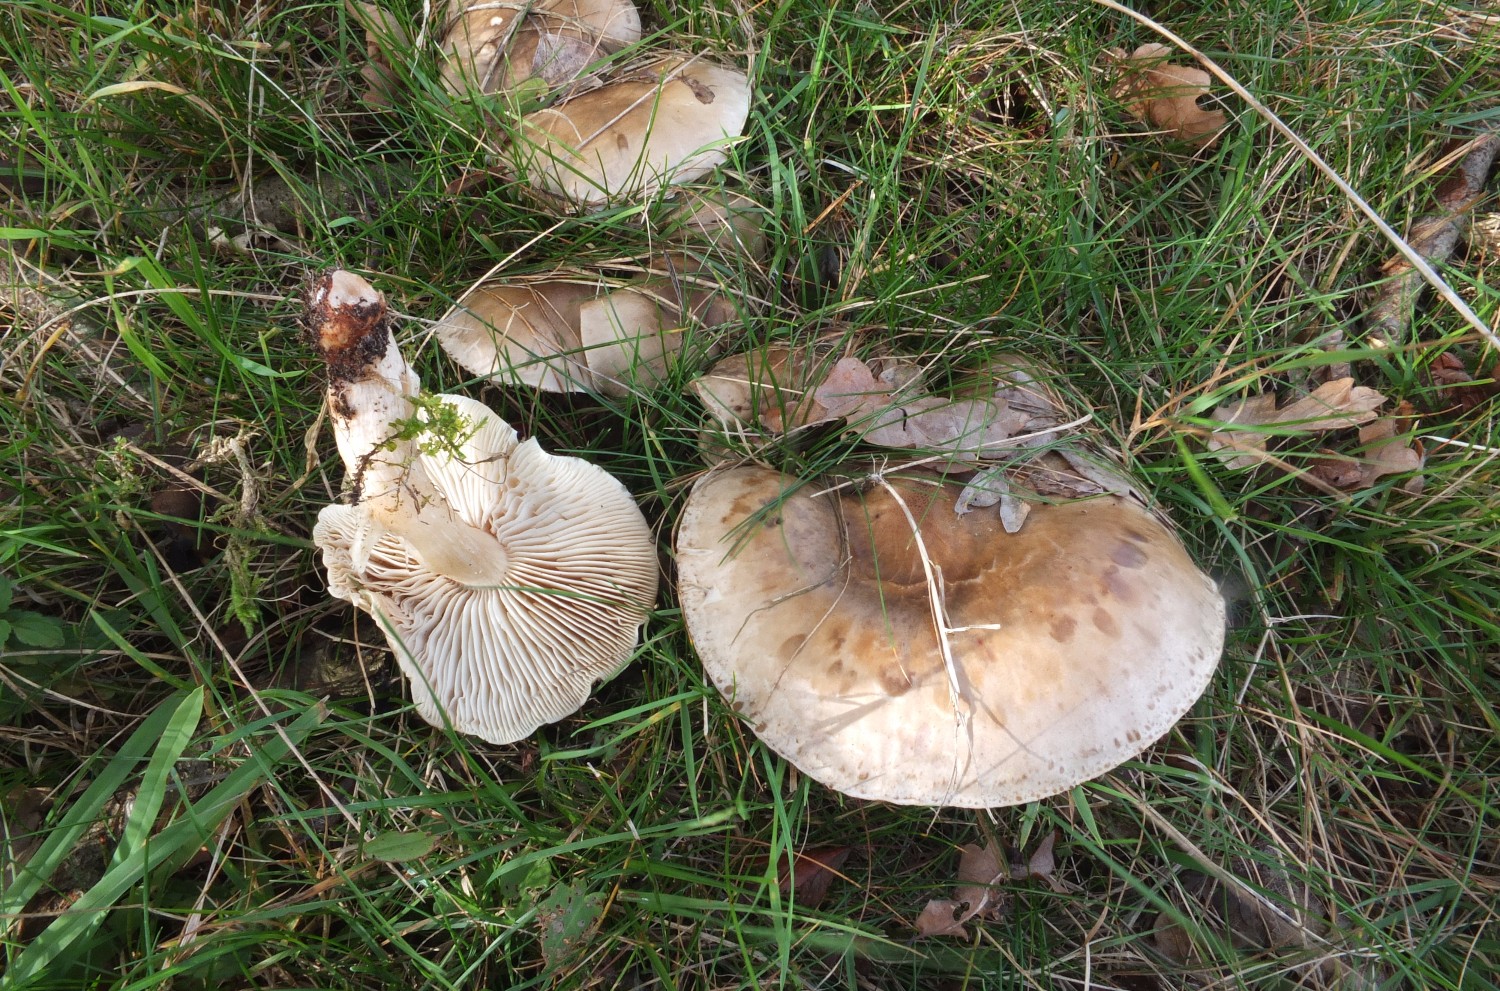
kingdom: Fungi
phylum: Basidiomycota
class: Agaricomycetes
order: Agaricales
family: Tricholomataceae
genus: Lepista
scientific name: Lepista panaeolus
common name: marmoreret hekseringshat
